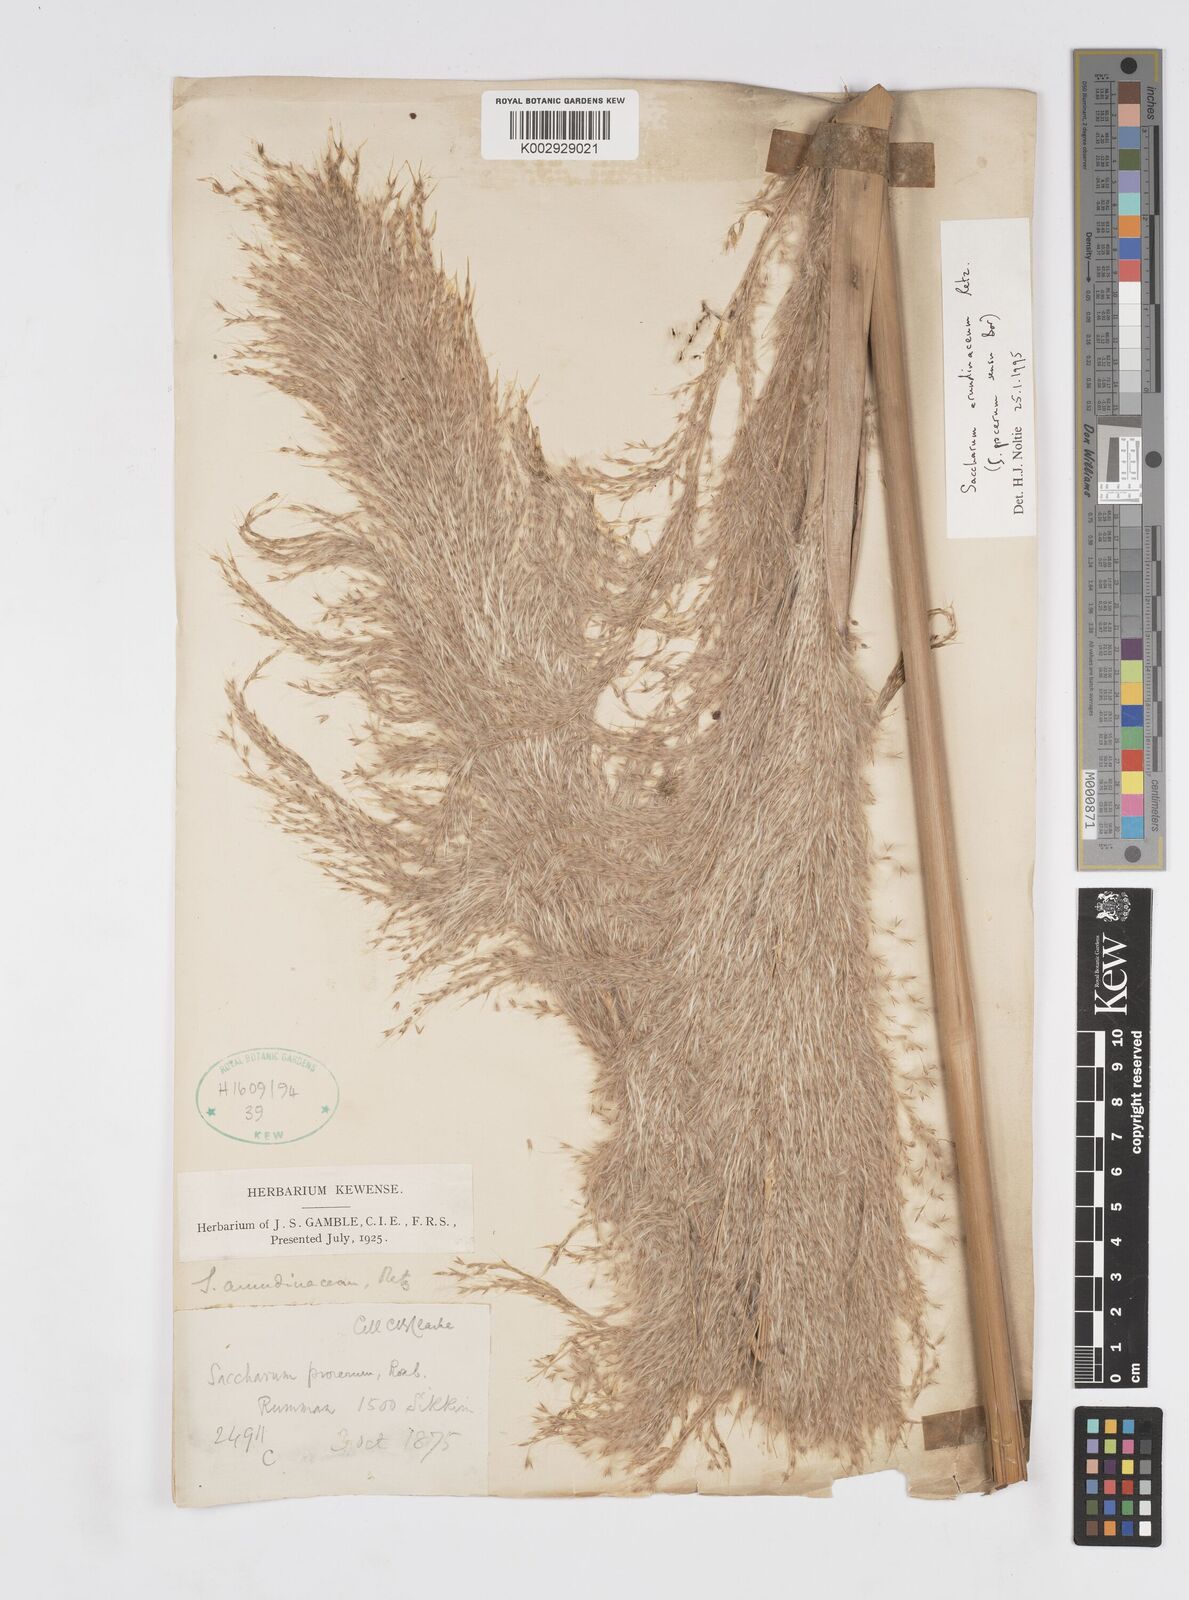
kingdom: Plantae
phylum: Tracheophyta
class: Liliopsida
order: Poales
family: Poaceae
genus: Tripidium
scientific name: Tripidium arundinaceum
